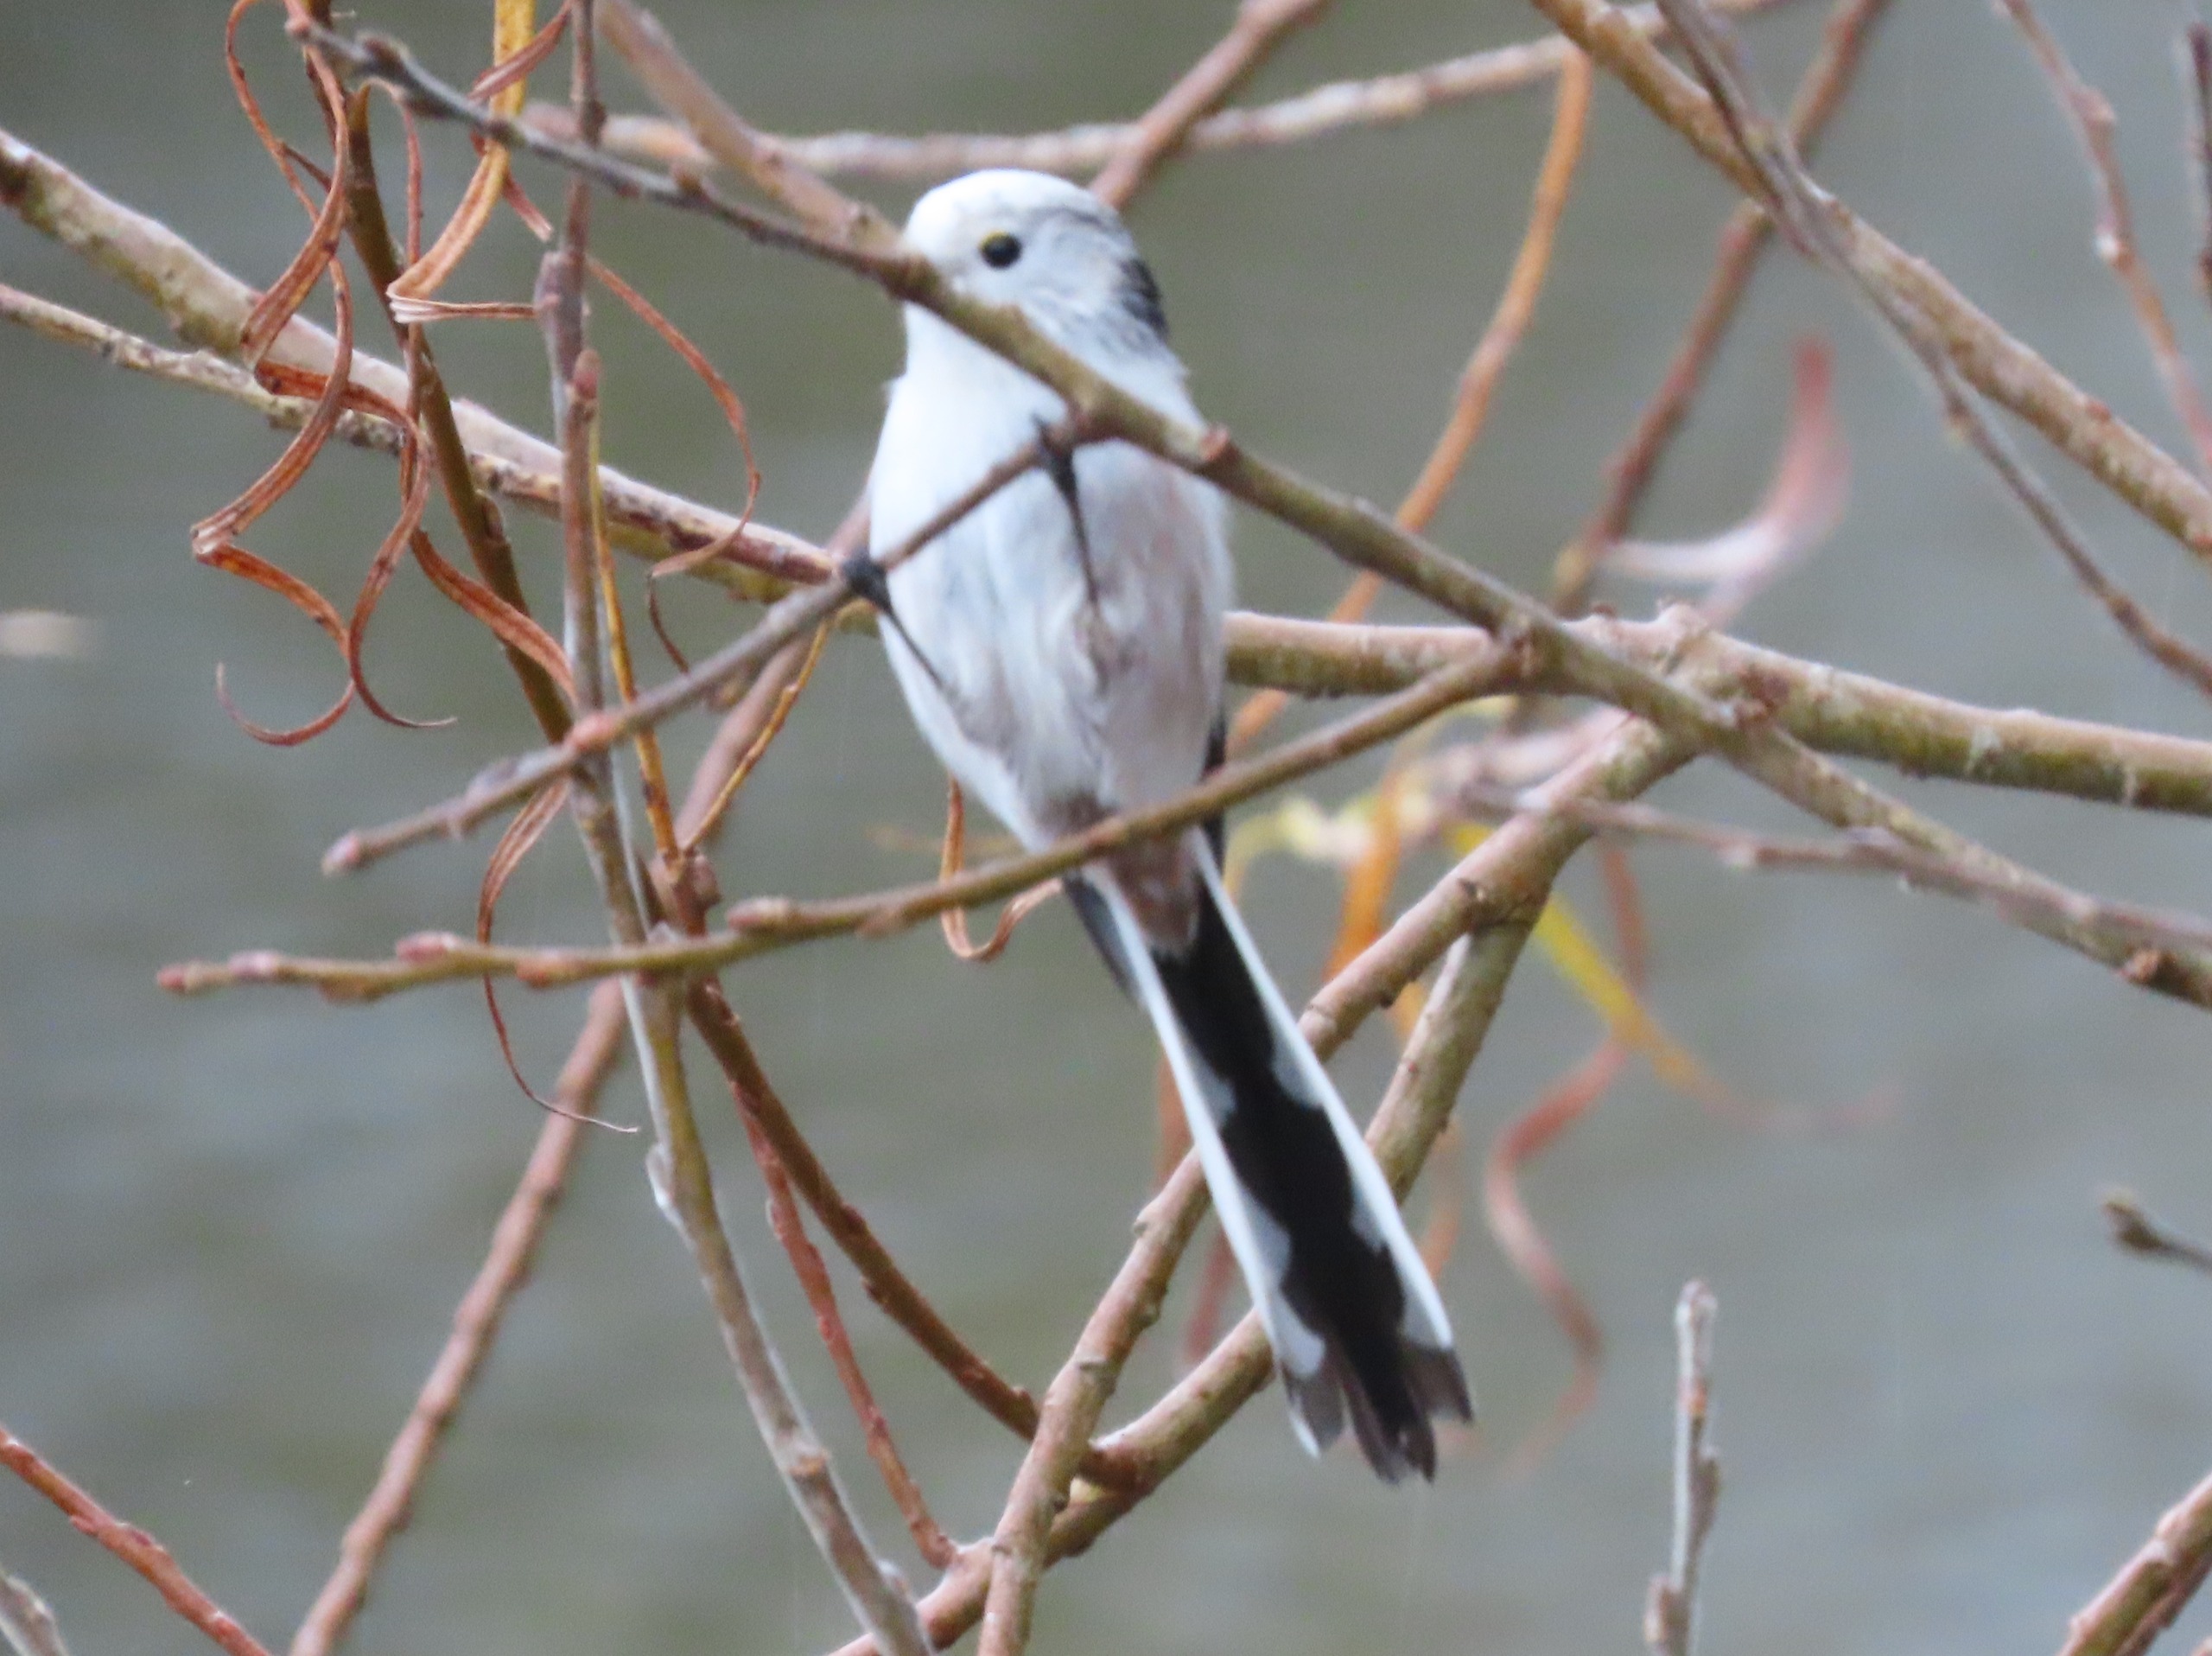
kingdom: Animalia
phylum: Chordata
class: Aves
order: Passeriformes
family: Aegithalidae
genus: Aegithalos
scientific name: Aegithalos caudatus
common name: Halemejse
